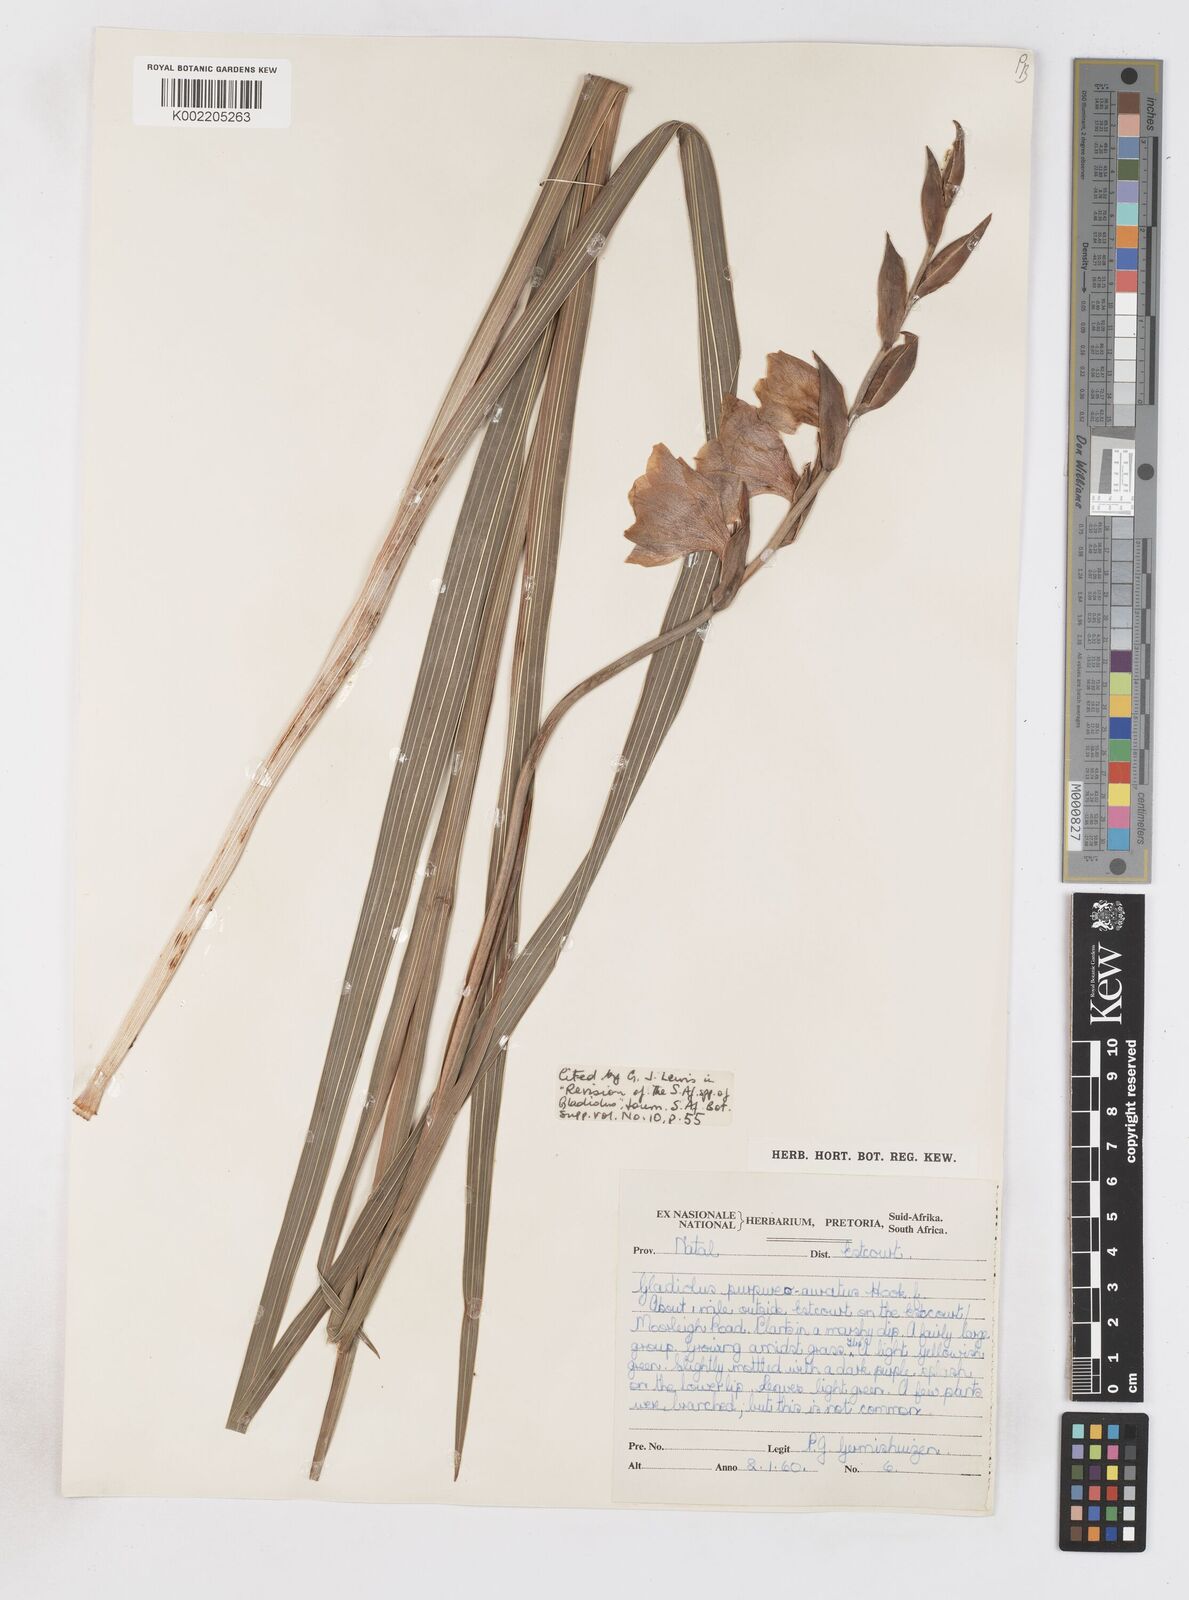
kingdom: Plantae
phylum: Tracheophyta
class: Liliopsida
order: Asparagales
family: Iridaceae
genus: Gladiolus
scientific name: Gladiolus papilio
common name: Goldblotch gladiolus
